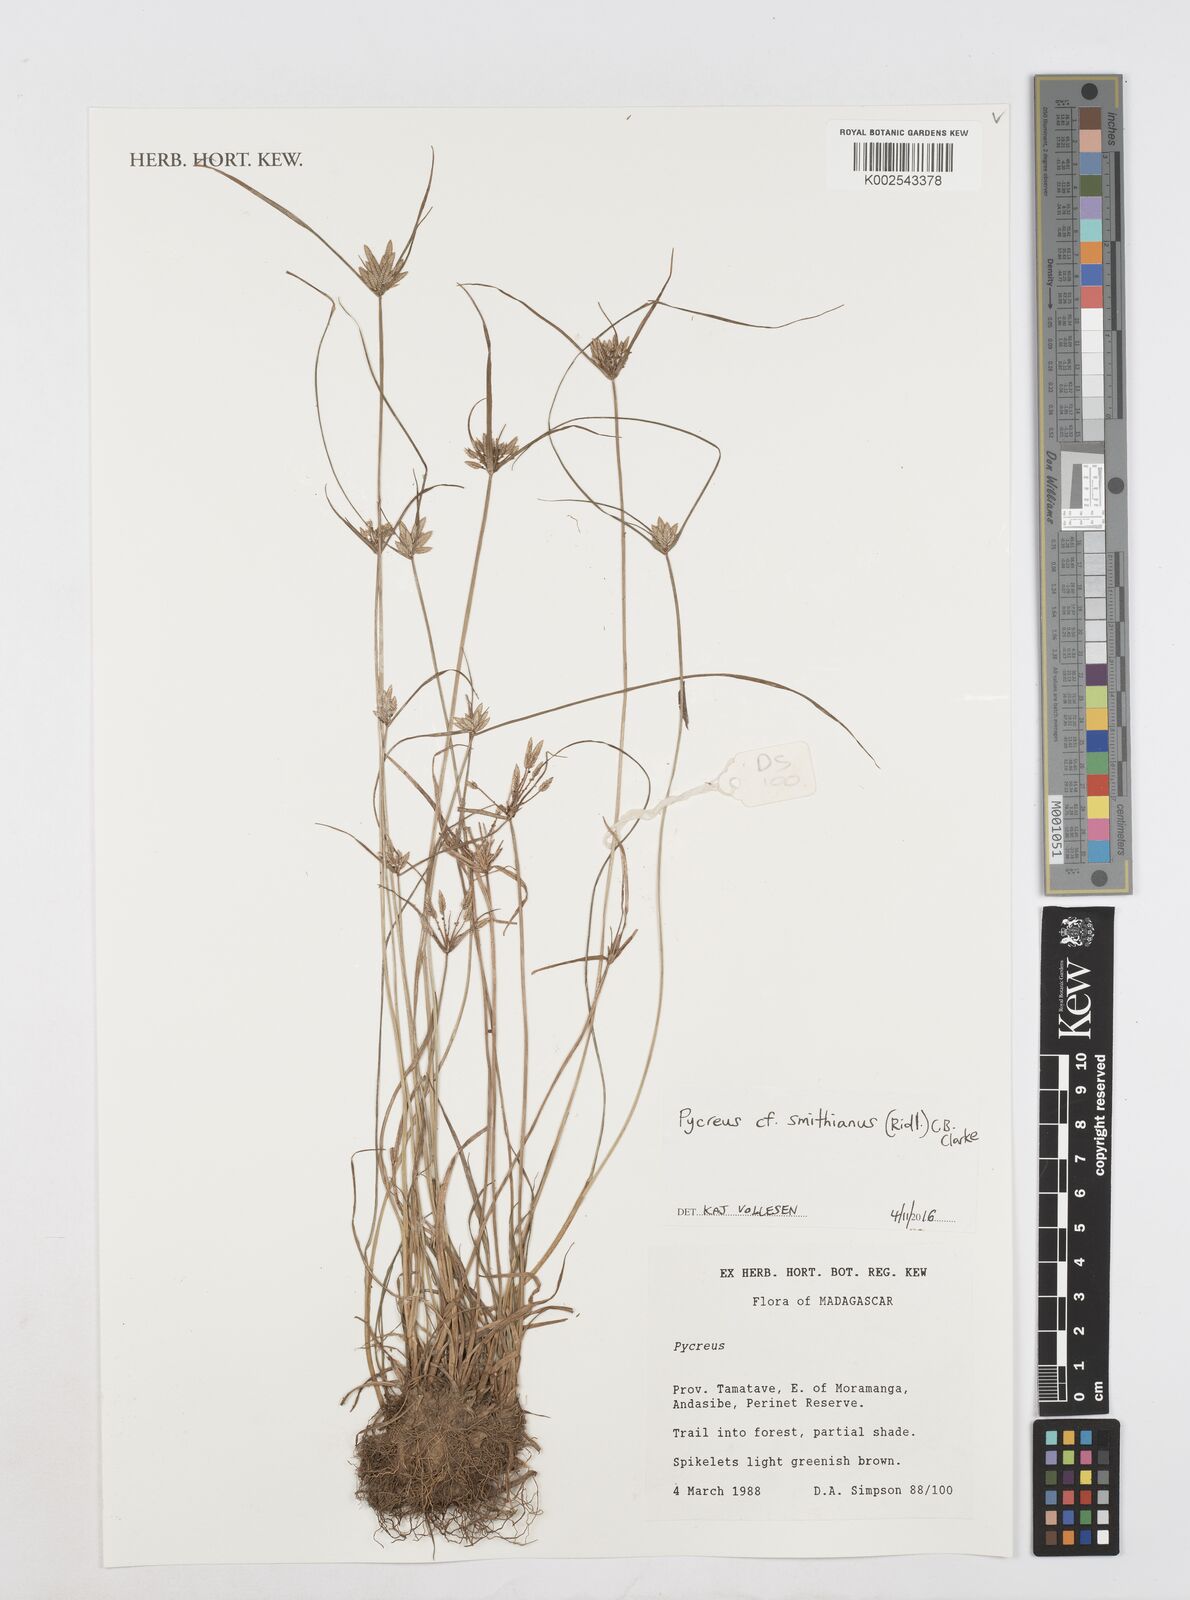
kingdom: Plantae
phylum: Tracheophyta
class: Liliopsida
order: Poales
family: Cyperaceae
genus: Cyperus
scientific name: Cyperus smithianus
